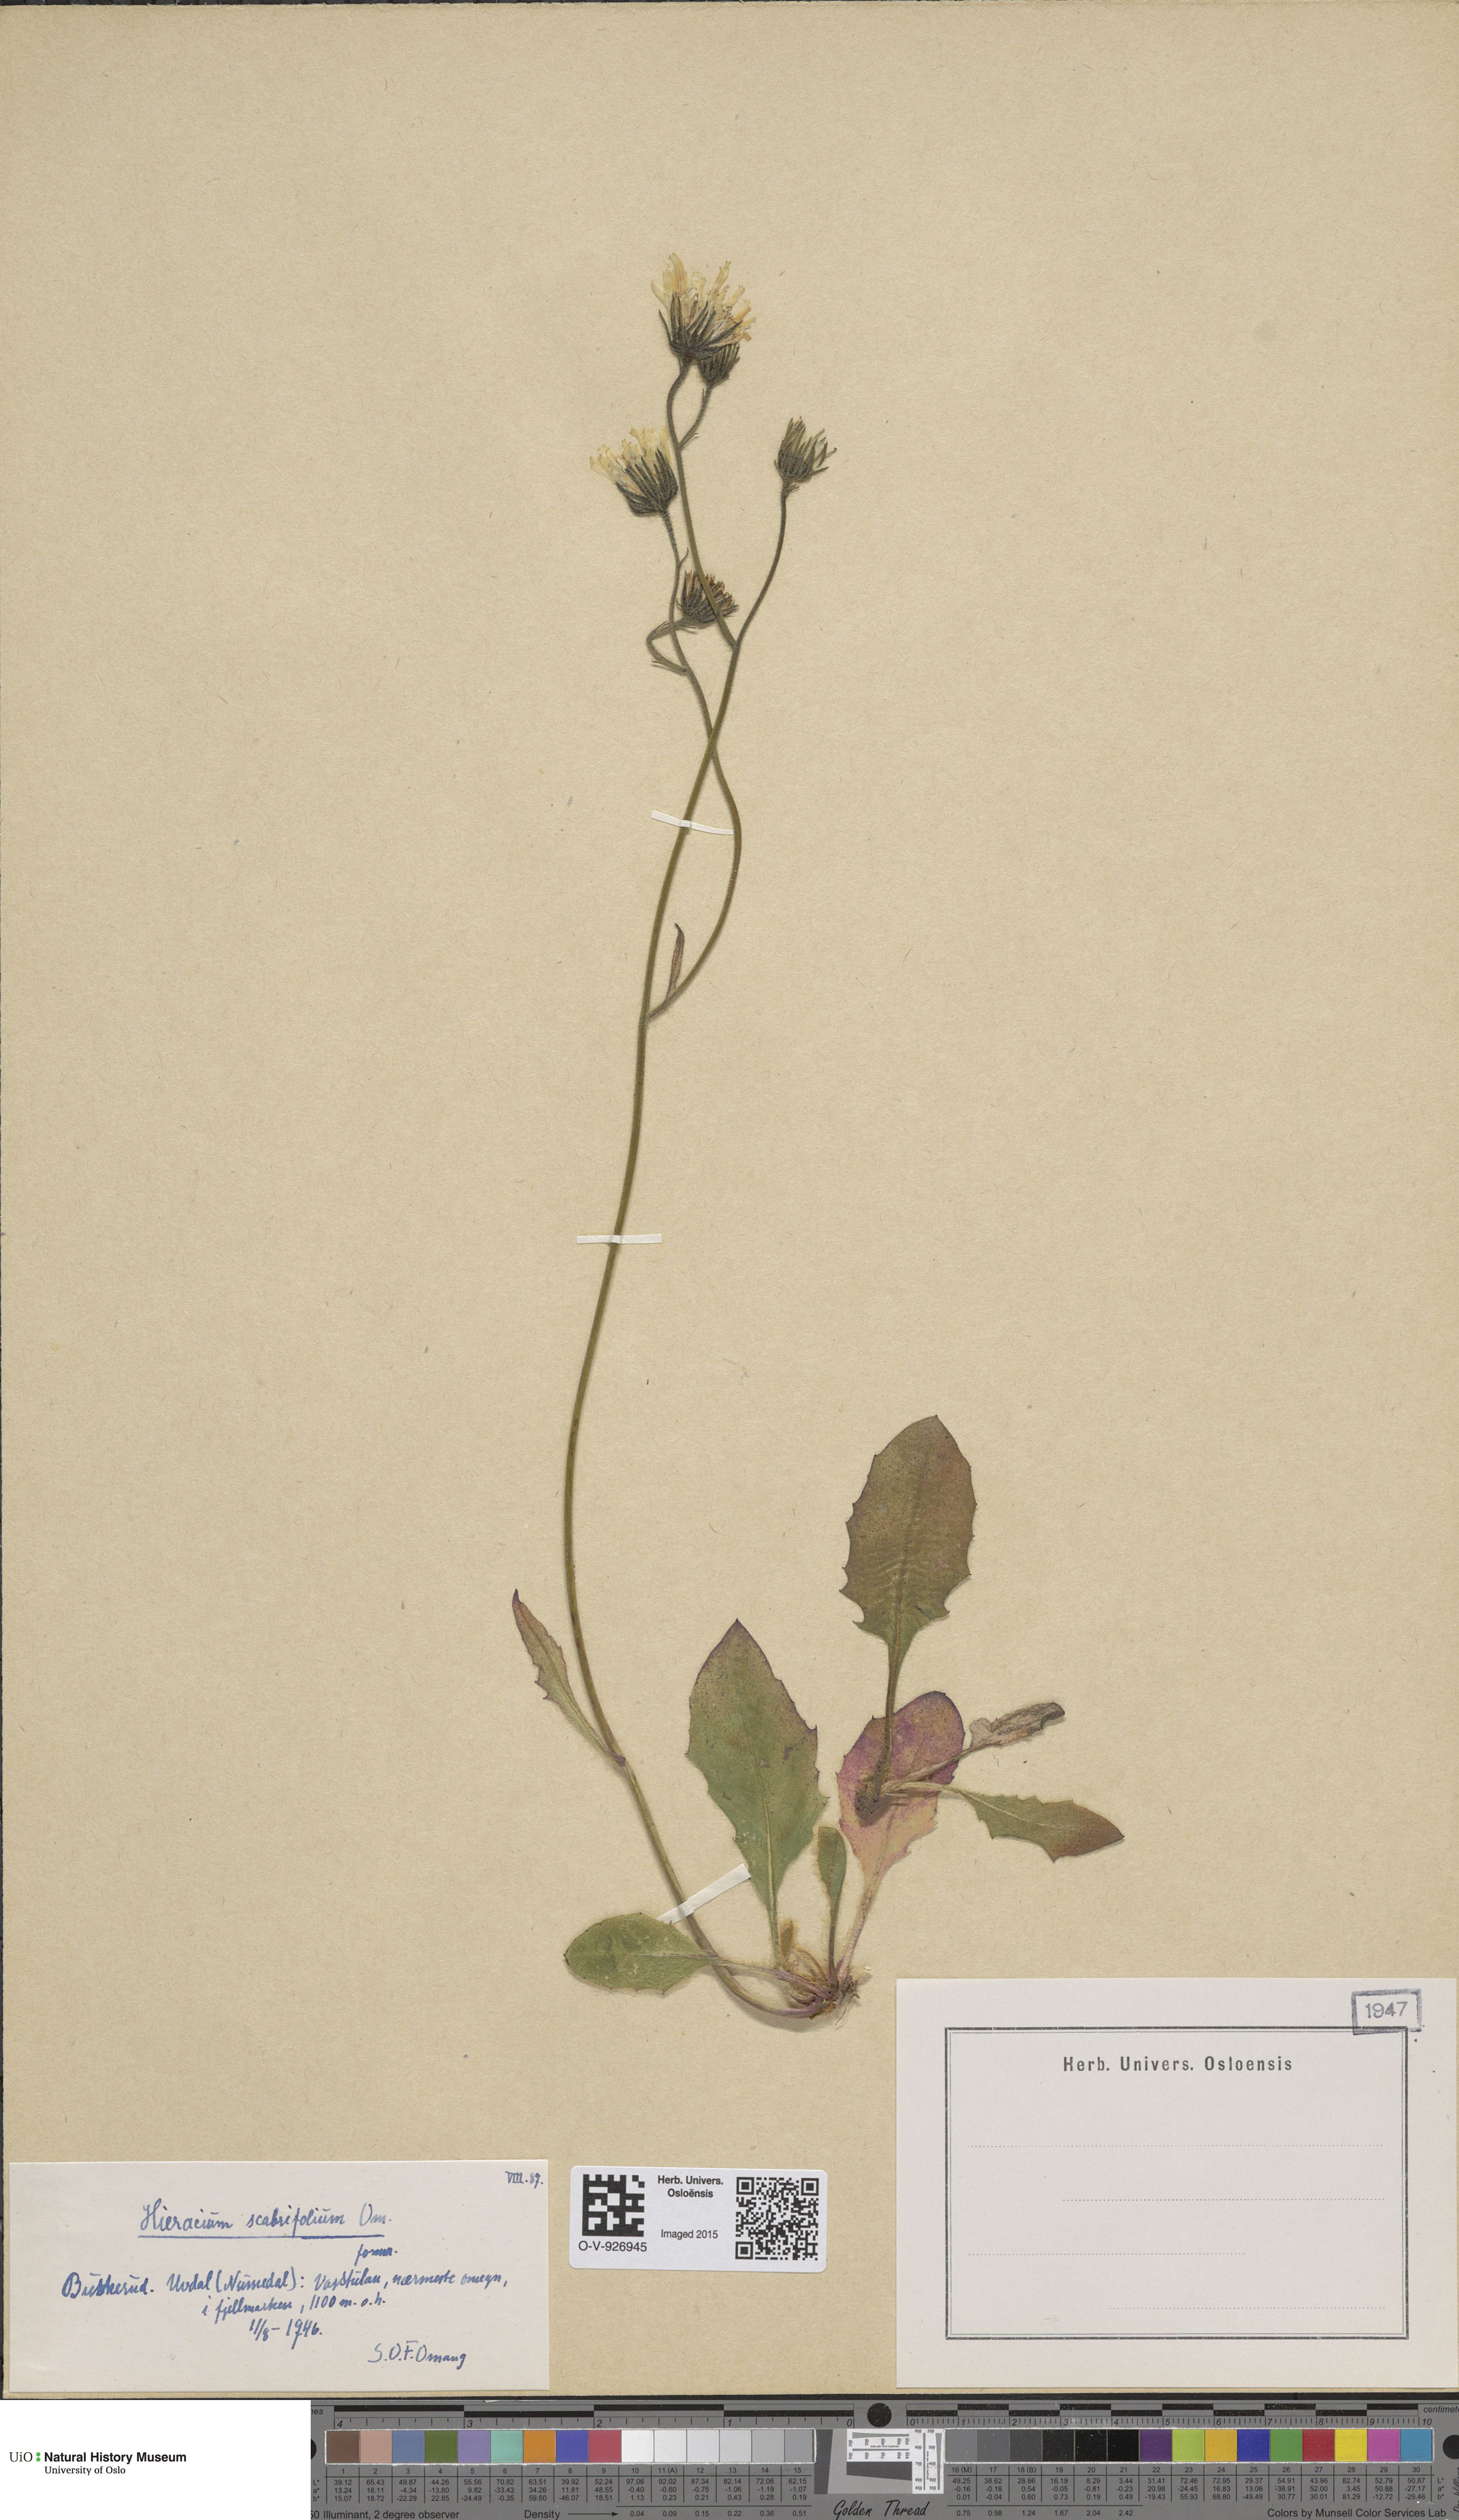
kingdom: Plantae
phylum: Tracheophyta
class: Magnoliopsida
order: Asterales
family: Asteraceae
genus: Hieracium
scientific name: Hieracium
